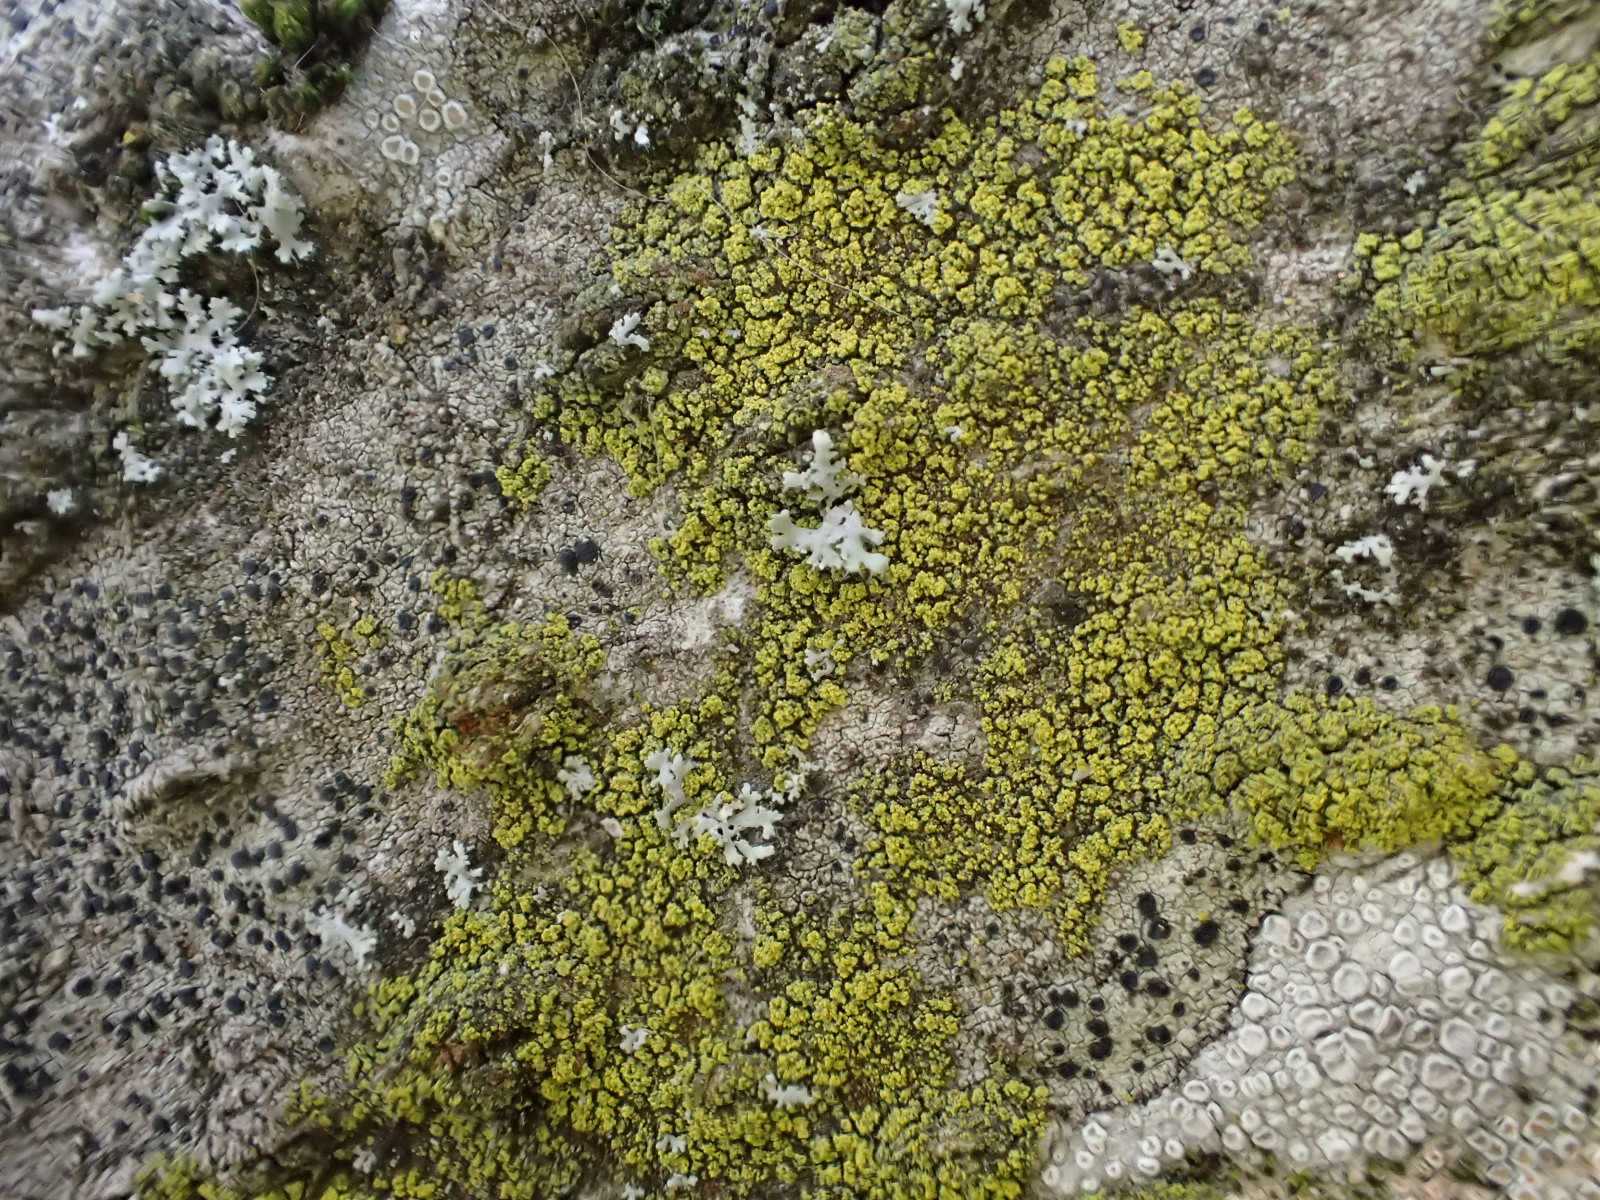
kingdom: Fungi
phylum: Ascomycota
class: Candelariomycetes
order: Candelariales
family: Candelariaceae
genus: Candelariella
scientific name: Candelariella reflexa
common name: grynskællet æggeblommelav
